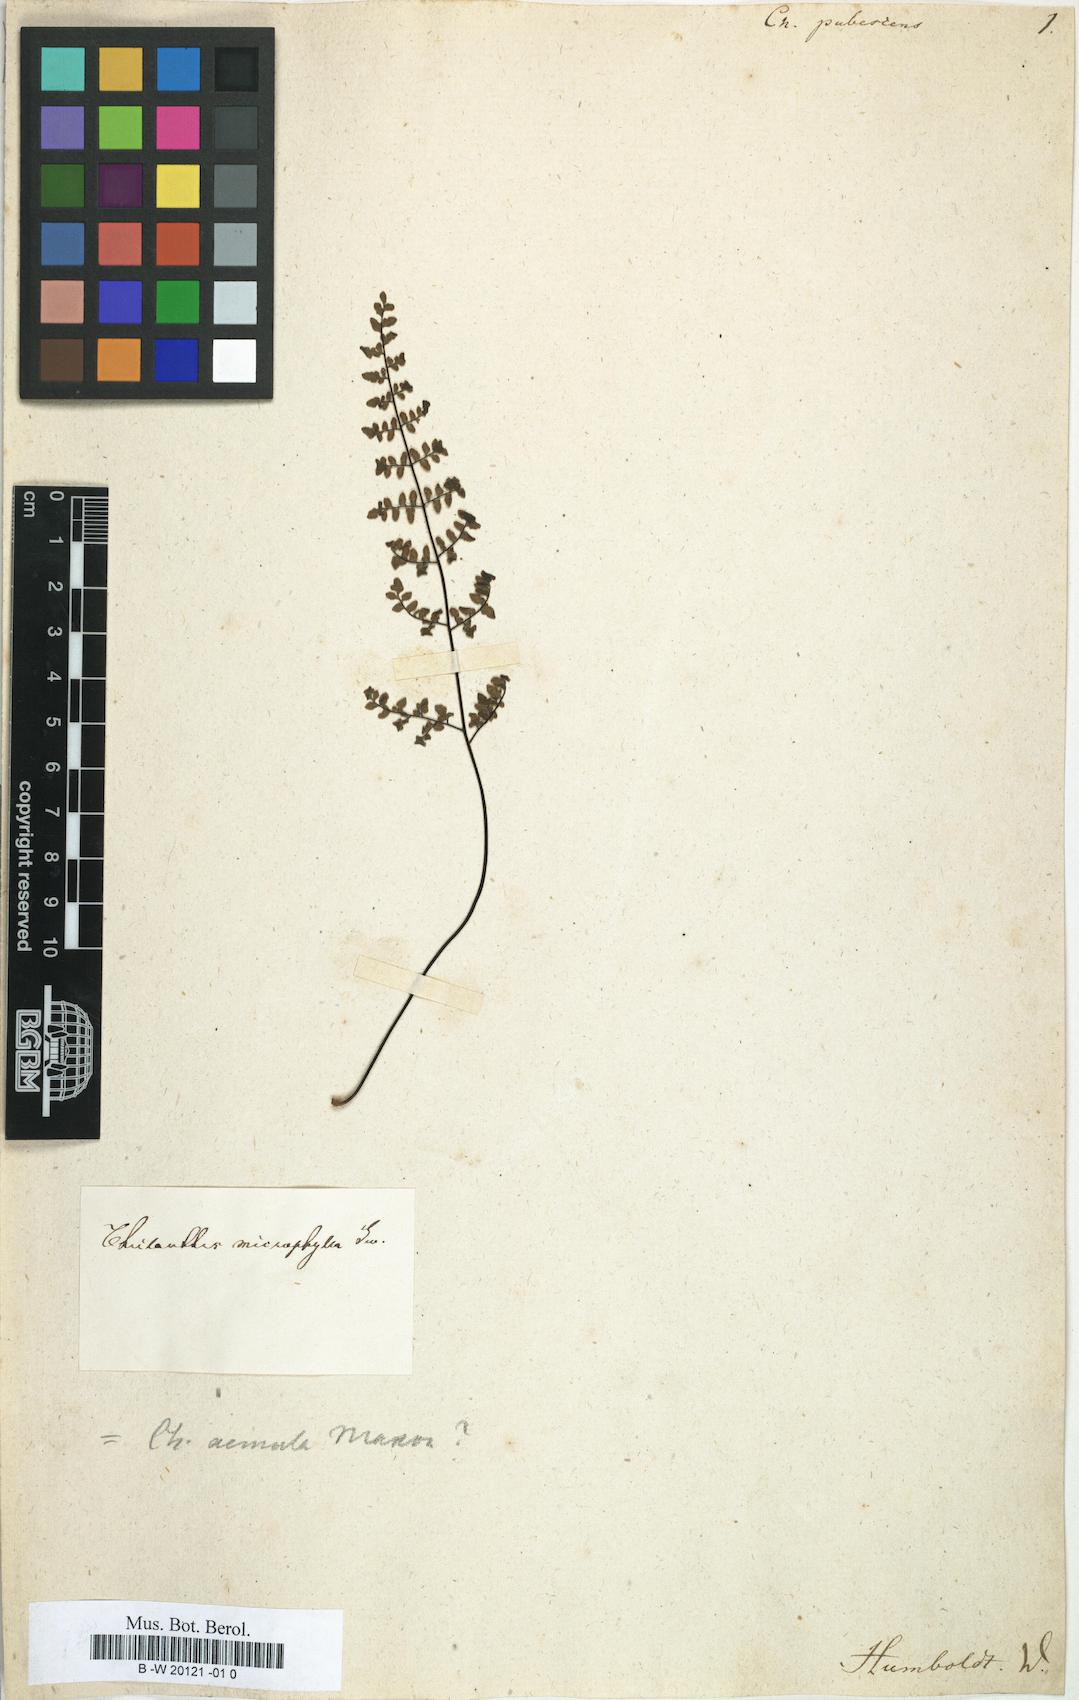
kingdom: Plantae
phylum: Tracheophyta
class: Polypodiopsida
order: Polypodiales
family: Pteridaceae
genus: Myriopteris
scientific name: Myriopteris notholaenoides
